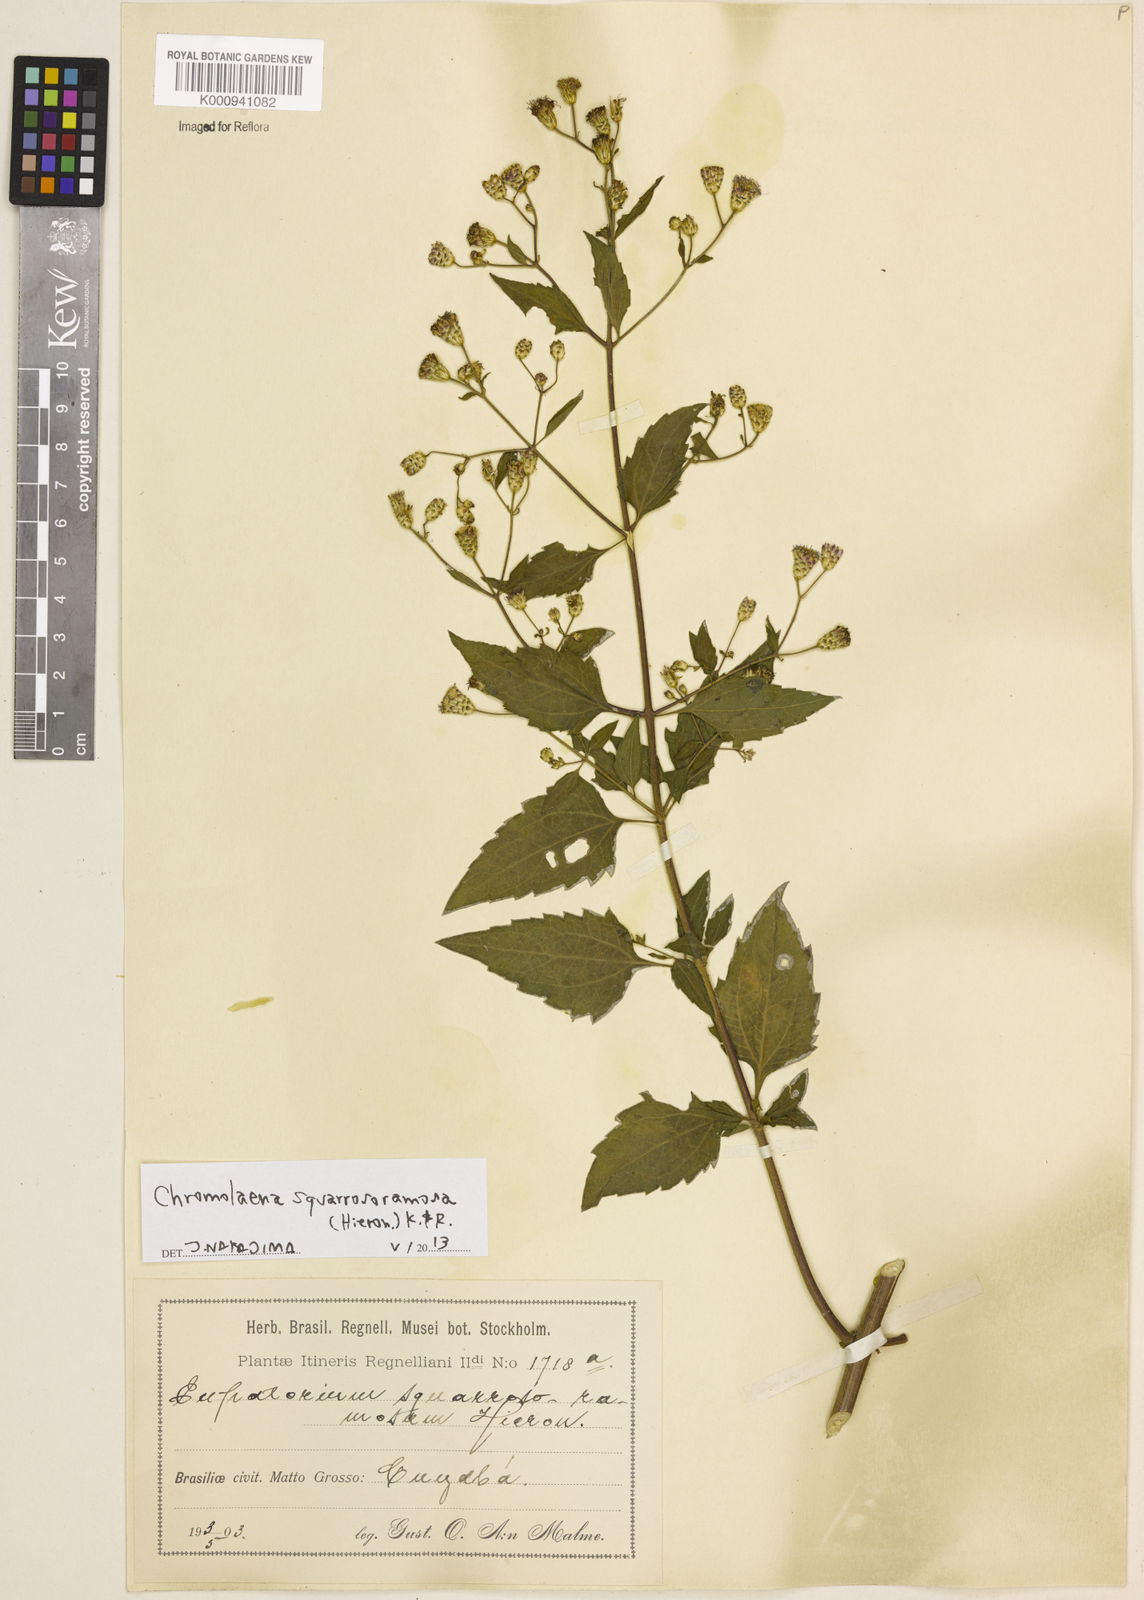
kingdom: Plantae
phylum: Tracheophyta
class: Magnoliopsida
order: Asterales
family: Asteraceae
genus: Chromolaena
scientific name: Chromolaena squarrosoramosa
